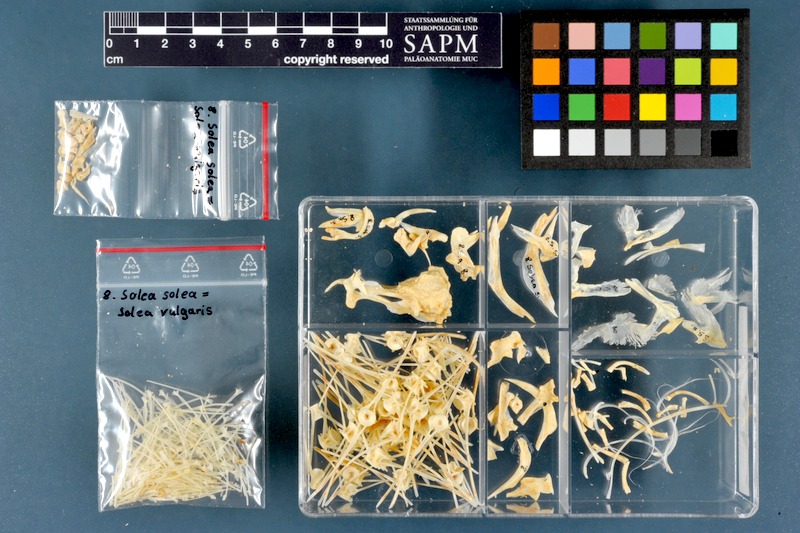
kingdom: Animalia
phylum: Chordata
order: Pleuronectiformes
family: Soleidae
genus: Solea
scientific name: Solea solea
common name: Sole
